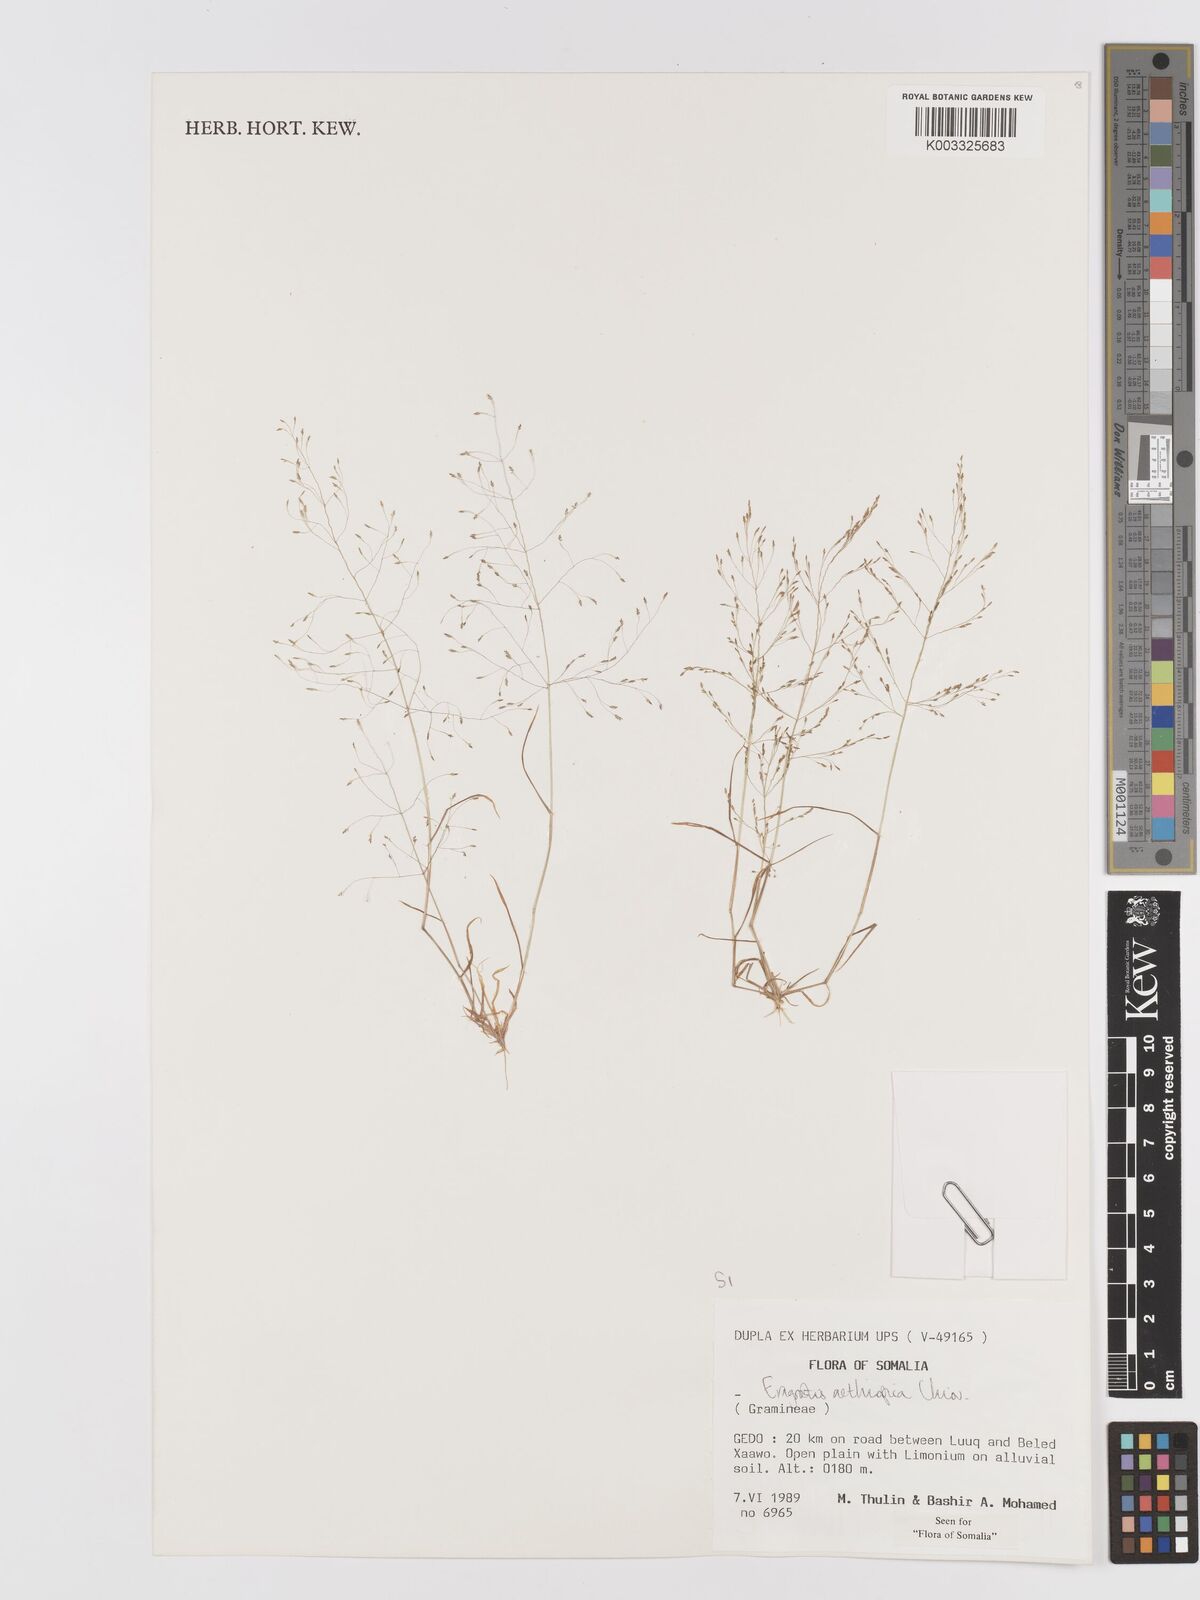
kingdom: Plantae
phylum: Tracheophyta
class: Liliopsida
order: Poales
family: Poaceae
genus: Eragrostis
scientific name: Eragrostis aethiopica
